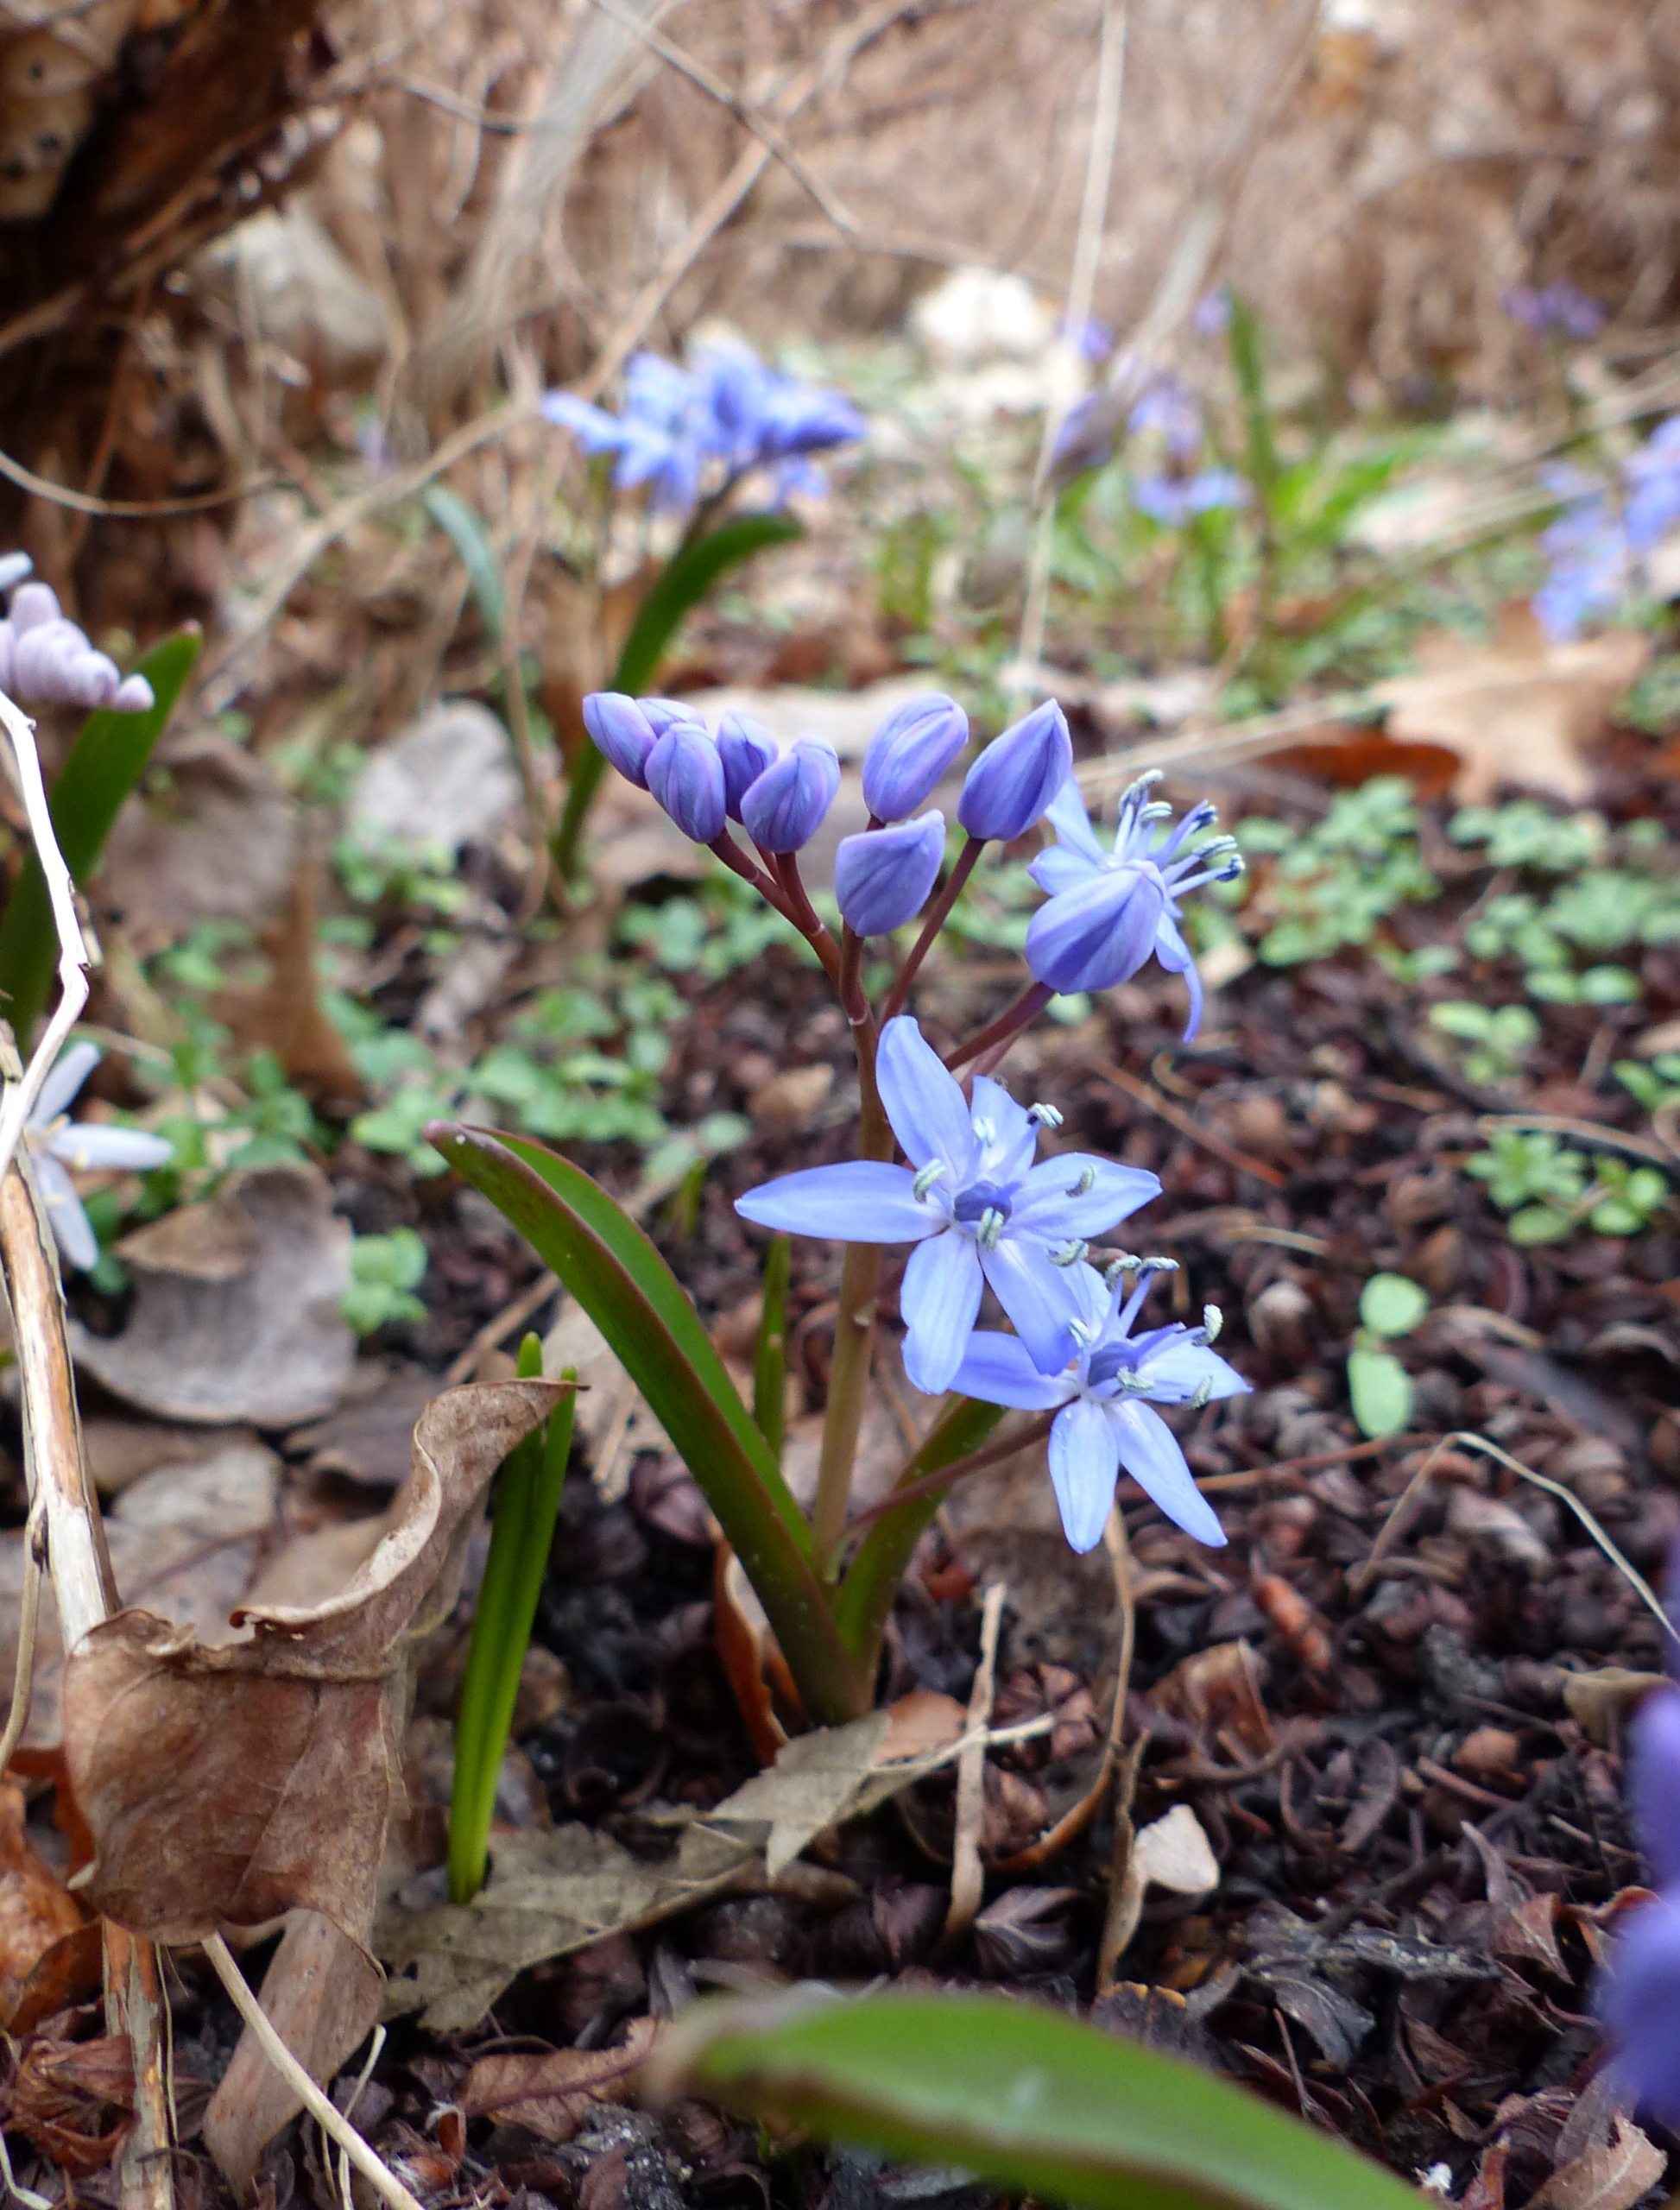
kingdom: Plantae
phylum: Tracheophyta
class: Liliopsida
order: Asparagales
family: Asparagaceae
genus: Scilla
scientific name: Scilla bifolia
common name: Tobladet skilla
